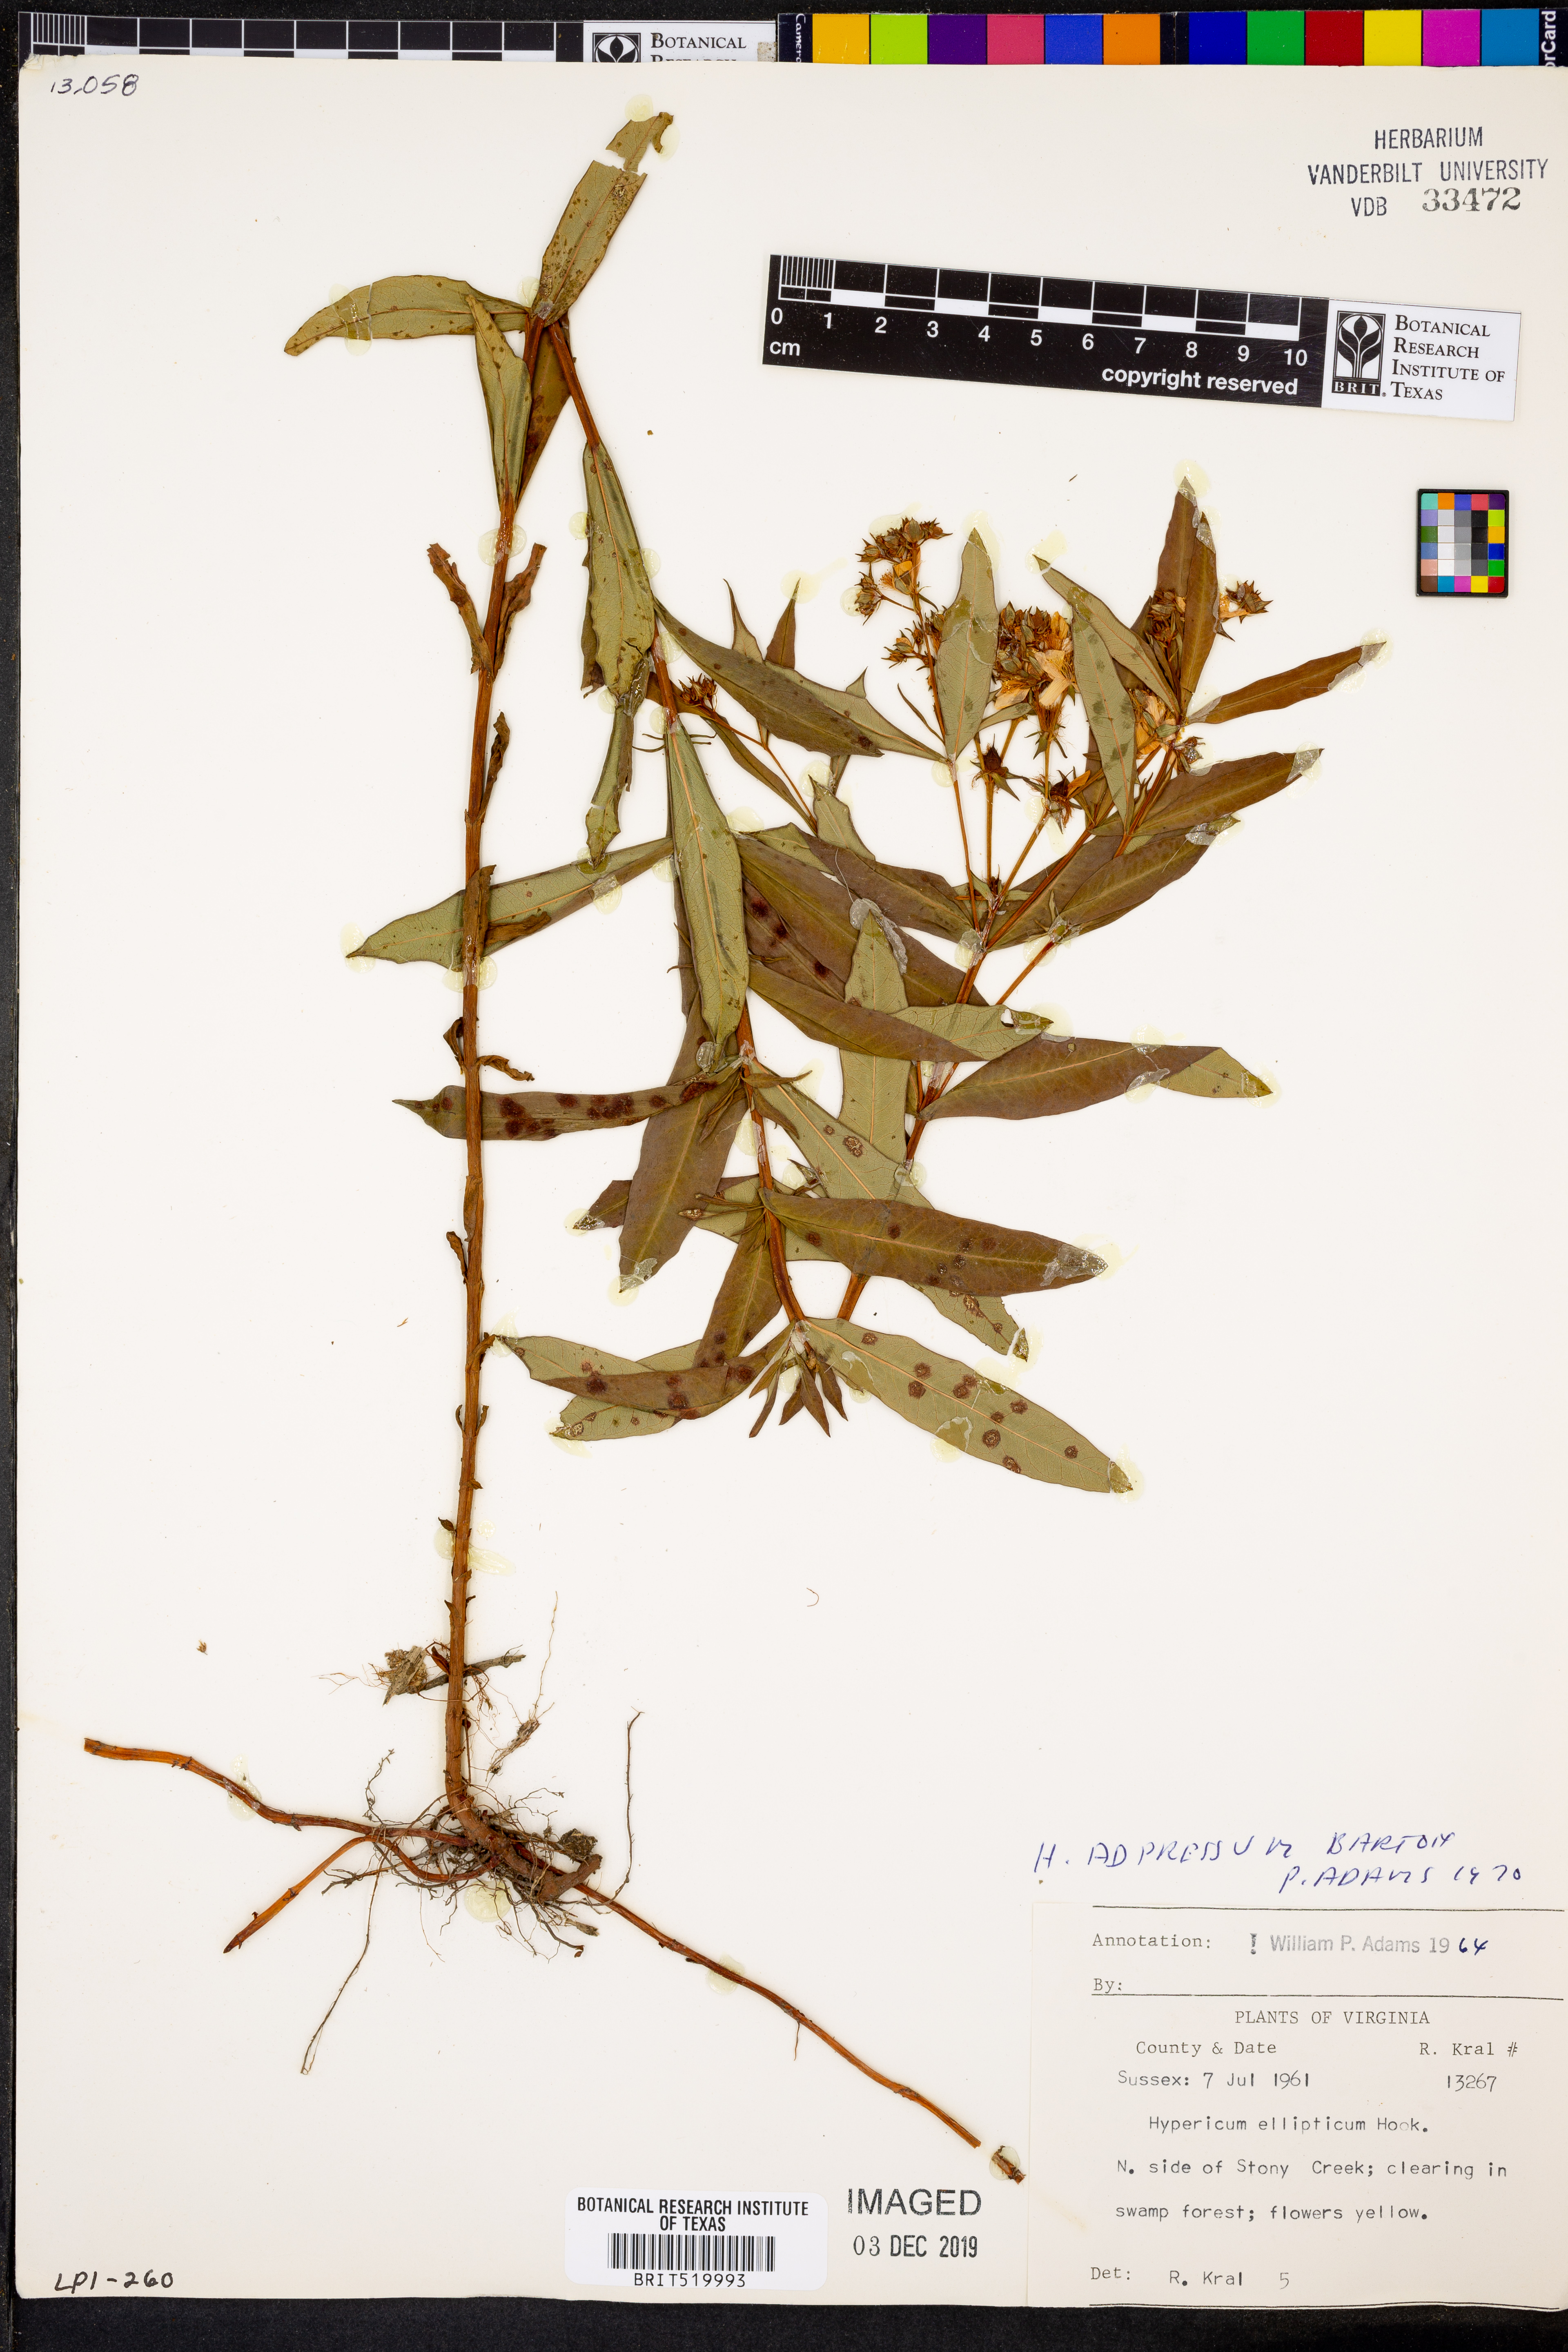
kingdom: Plantae
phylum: Tracheophyta
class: Magnoliopsida
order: Malpighiales
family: Hypericaceae
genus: Hypericum
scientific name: Hypericum ellipticum
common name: Elliptic st. john's-wort
